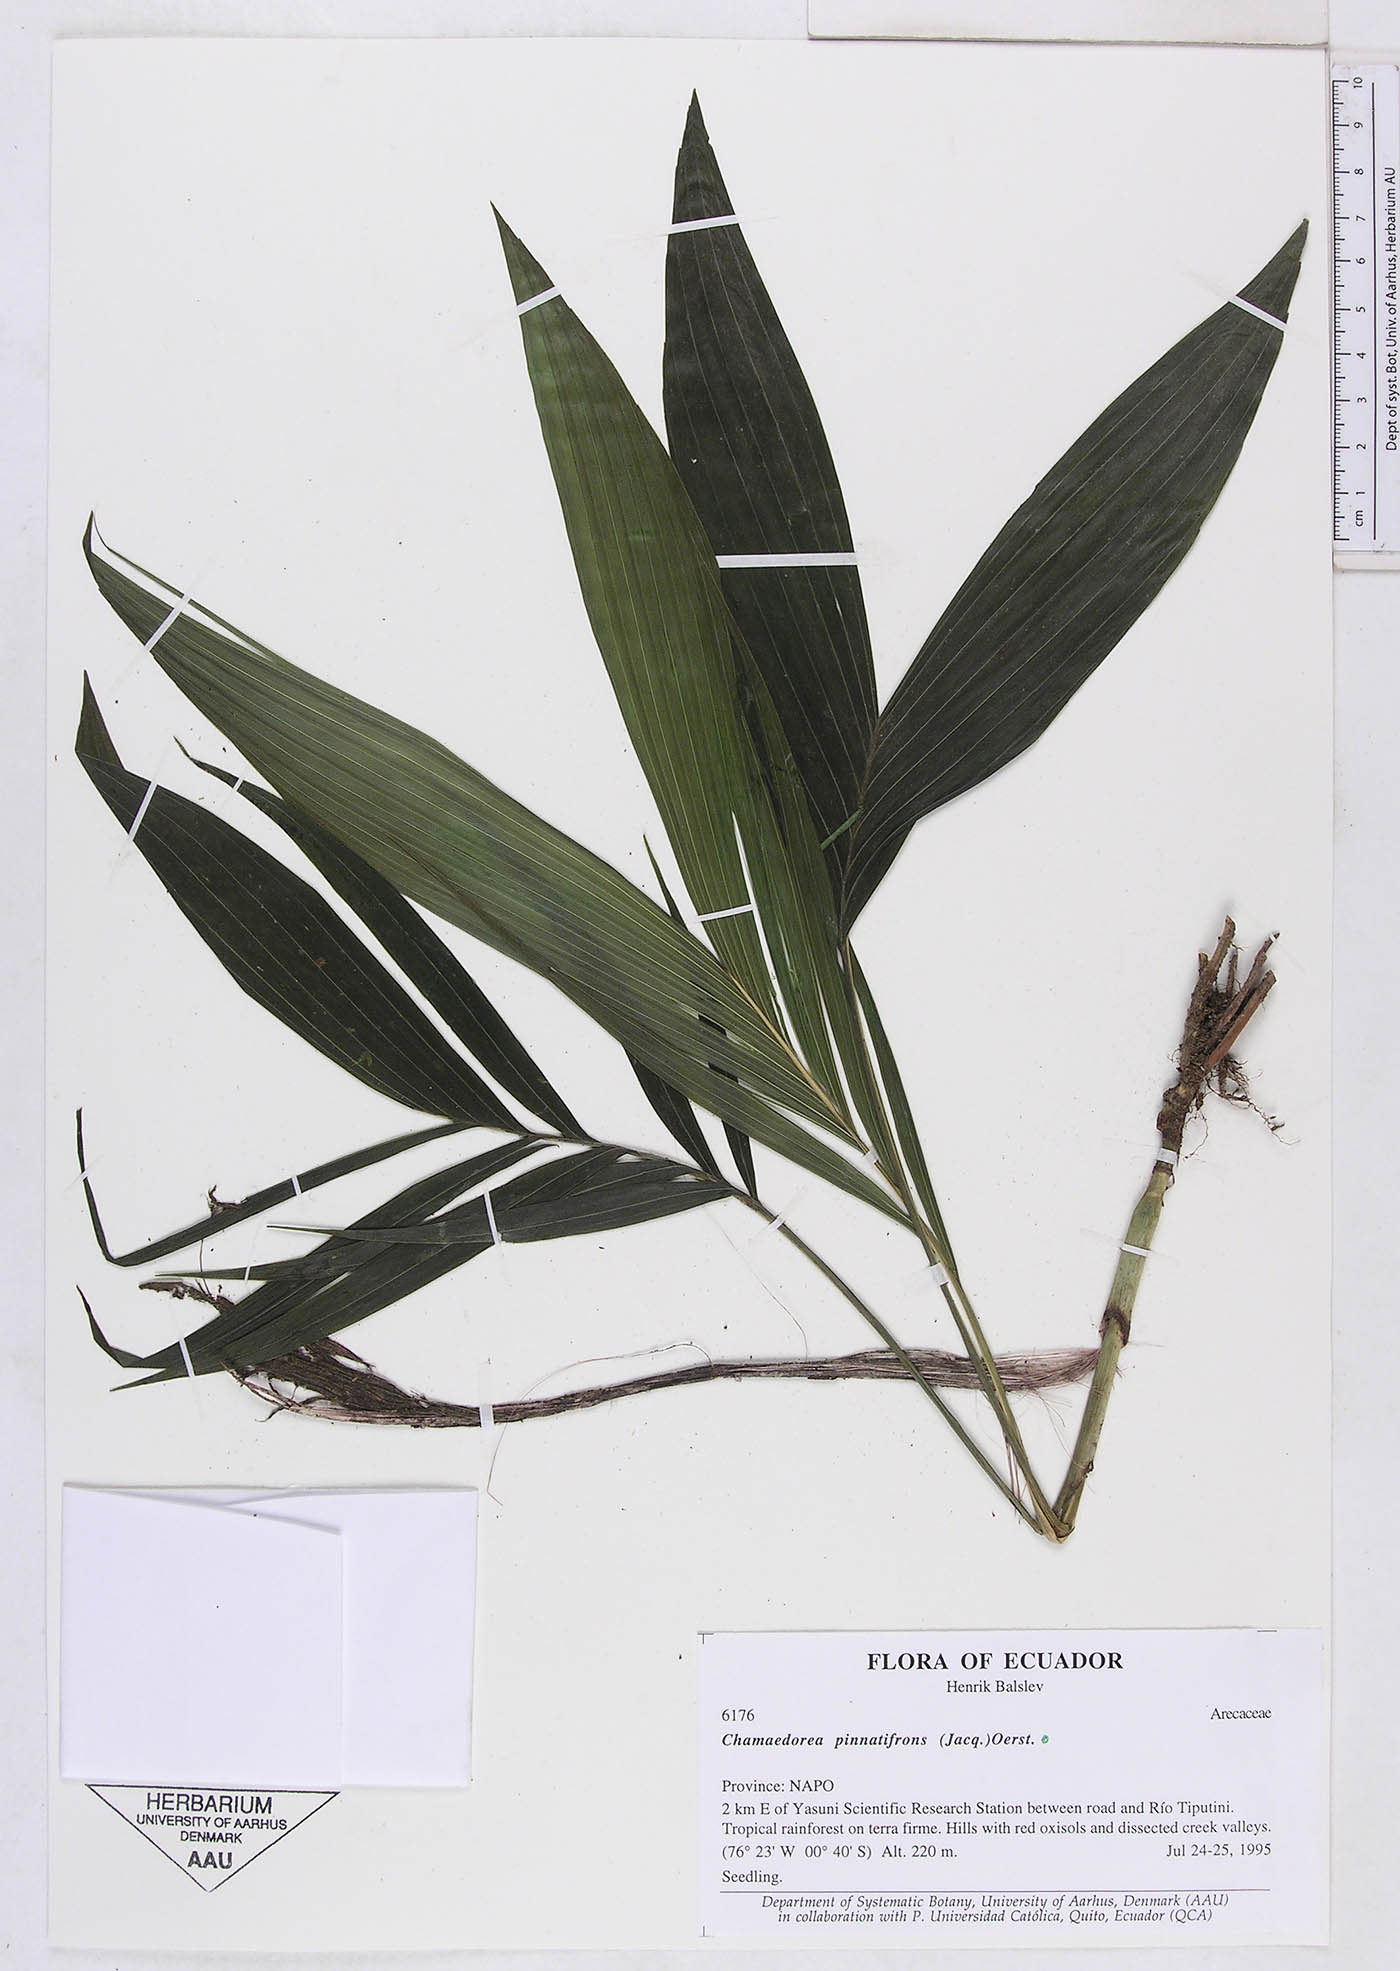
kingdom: Plantae
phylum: Tracheophyta
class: Liliopsida
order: Arecales
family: Arecaceae
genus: Chamaedorea
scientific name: Chamaedorea pinnatifrons
